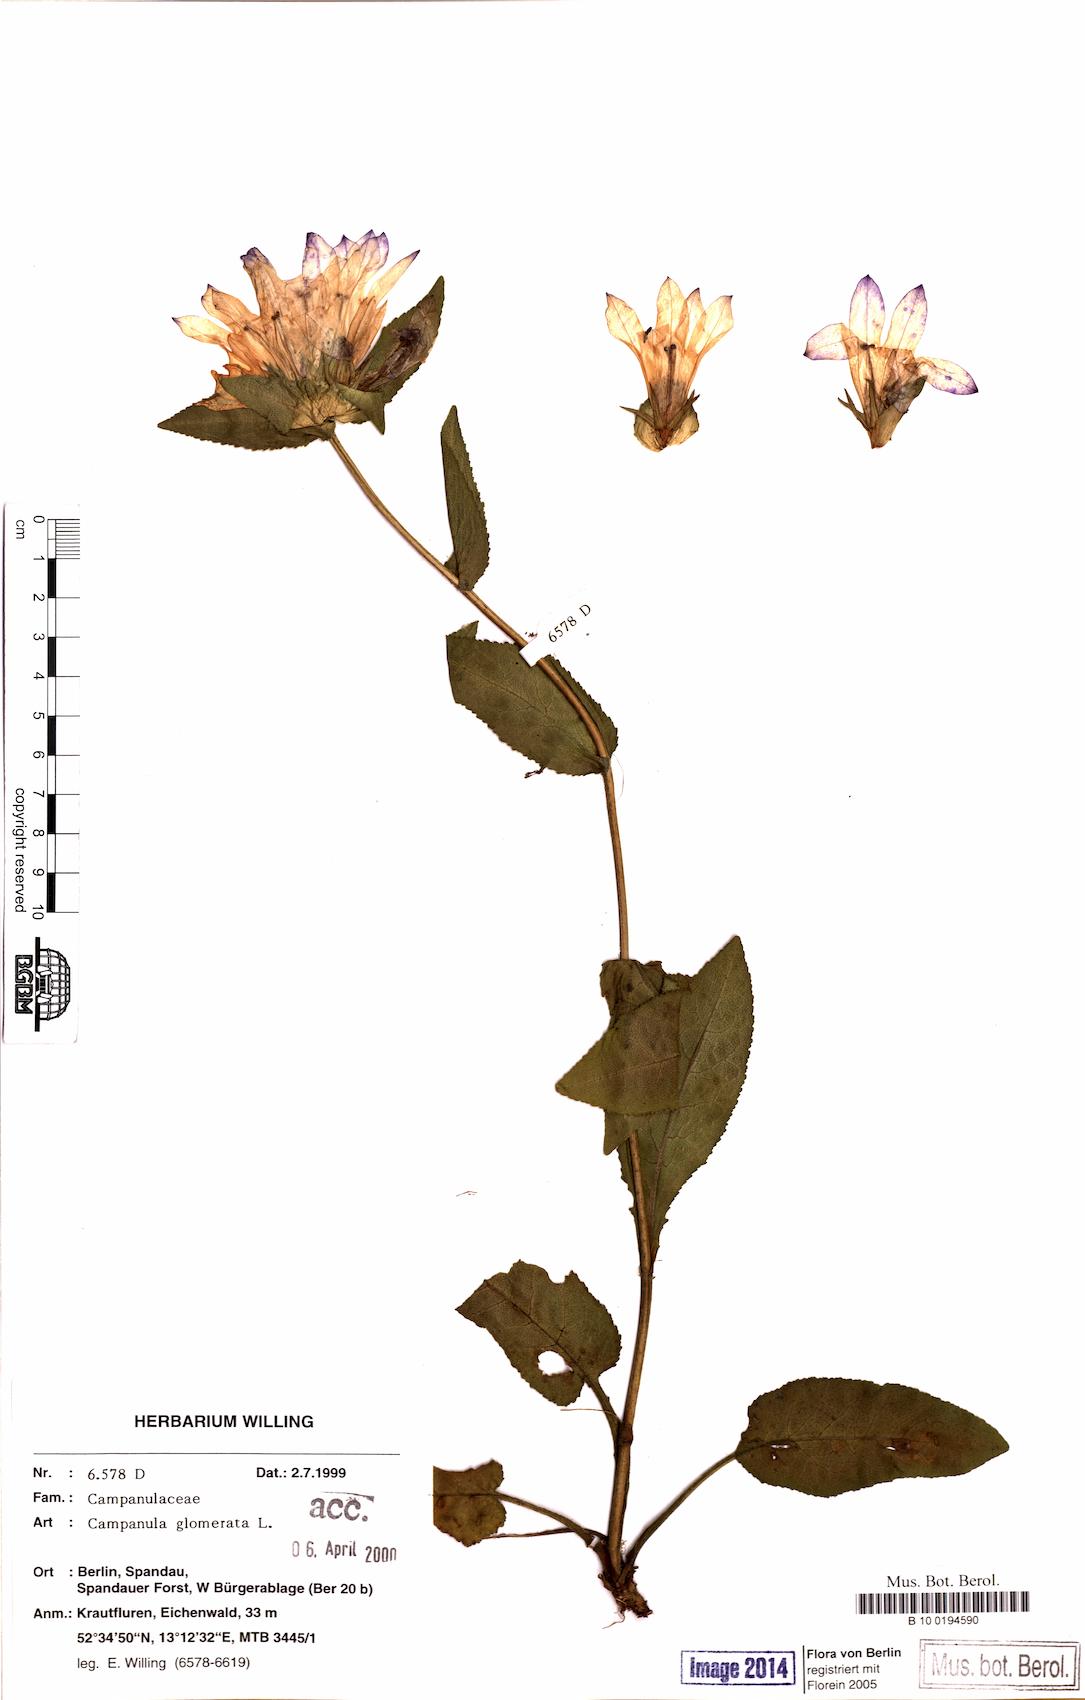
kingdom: Plantae
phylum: Tracheophyta
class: Magnoliopsida
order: Asterales
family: Campanulaceae
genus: Campanula
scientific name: Campanula glomerata
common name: Clustered bellflower
